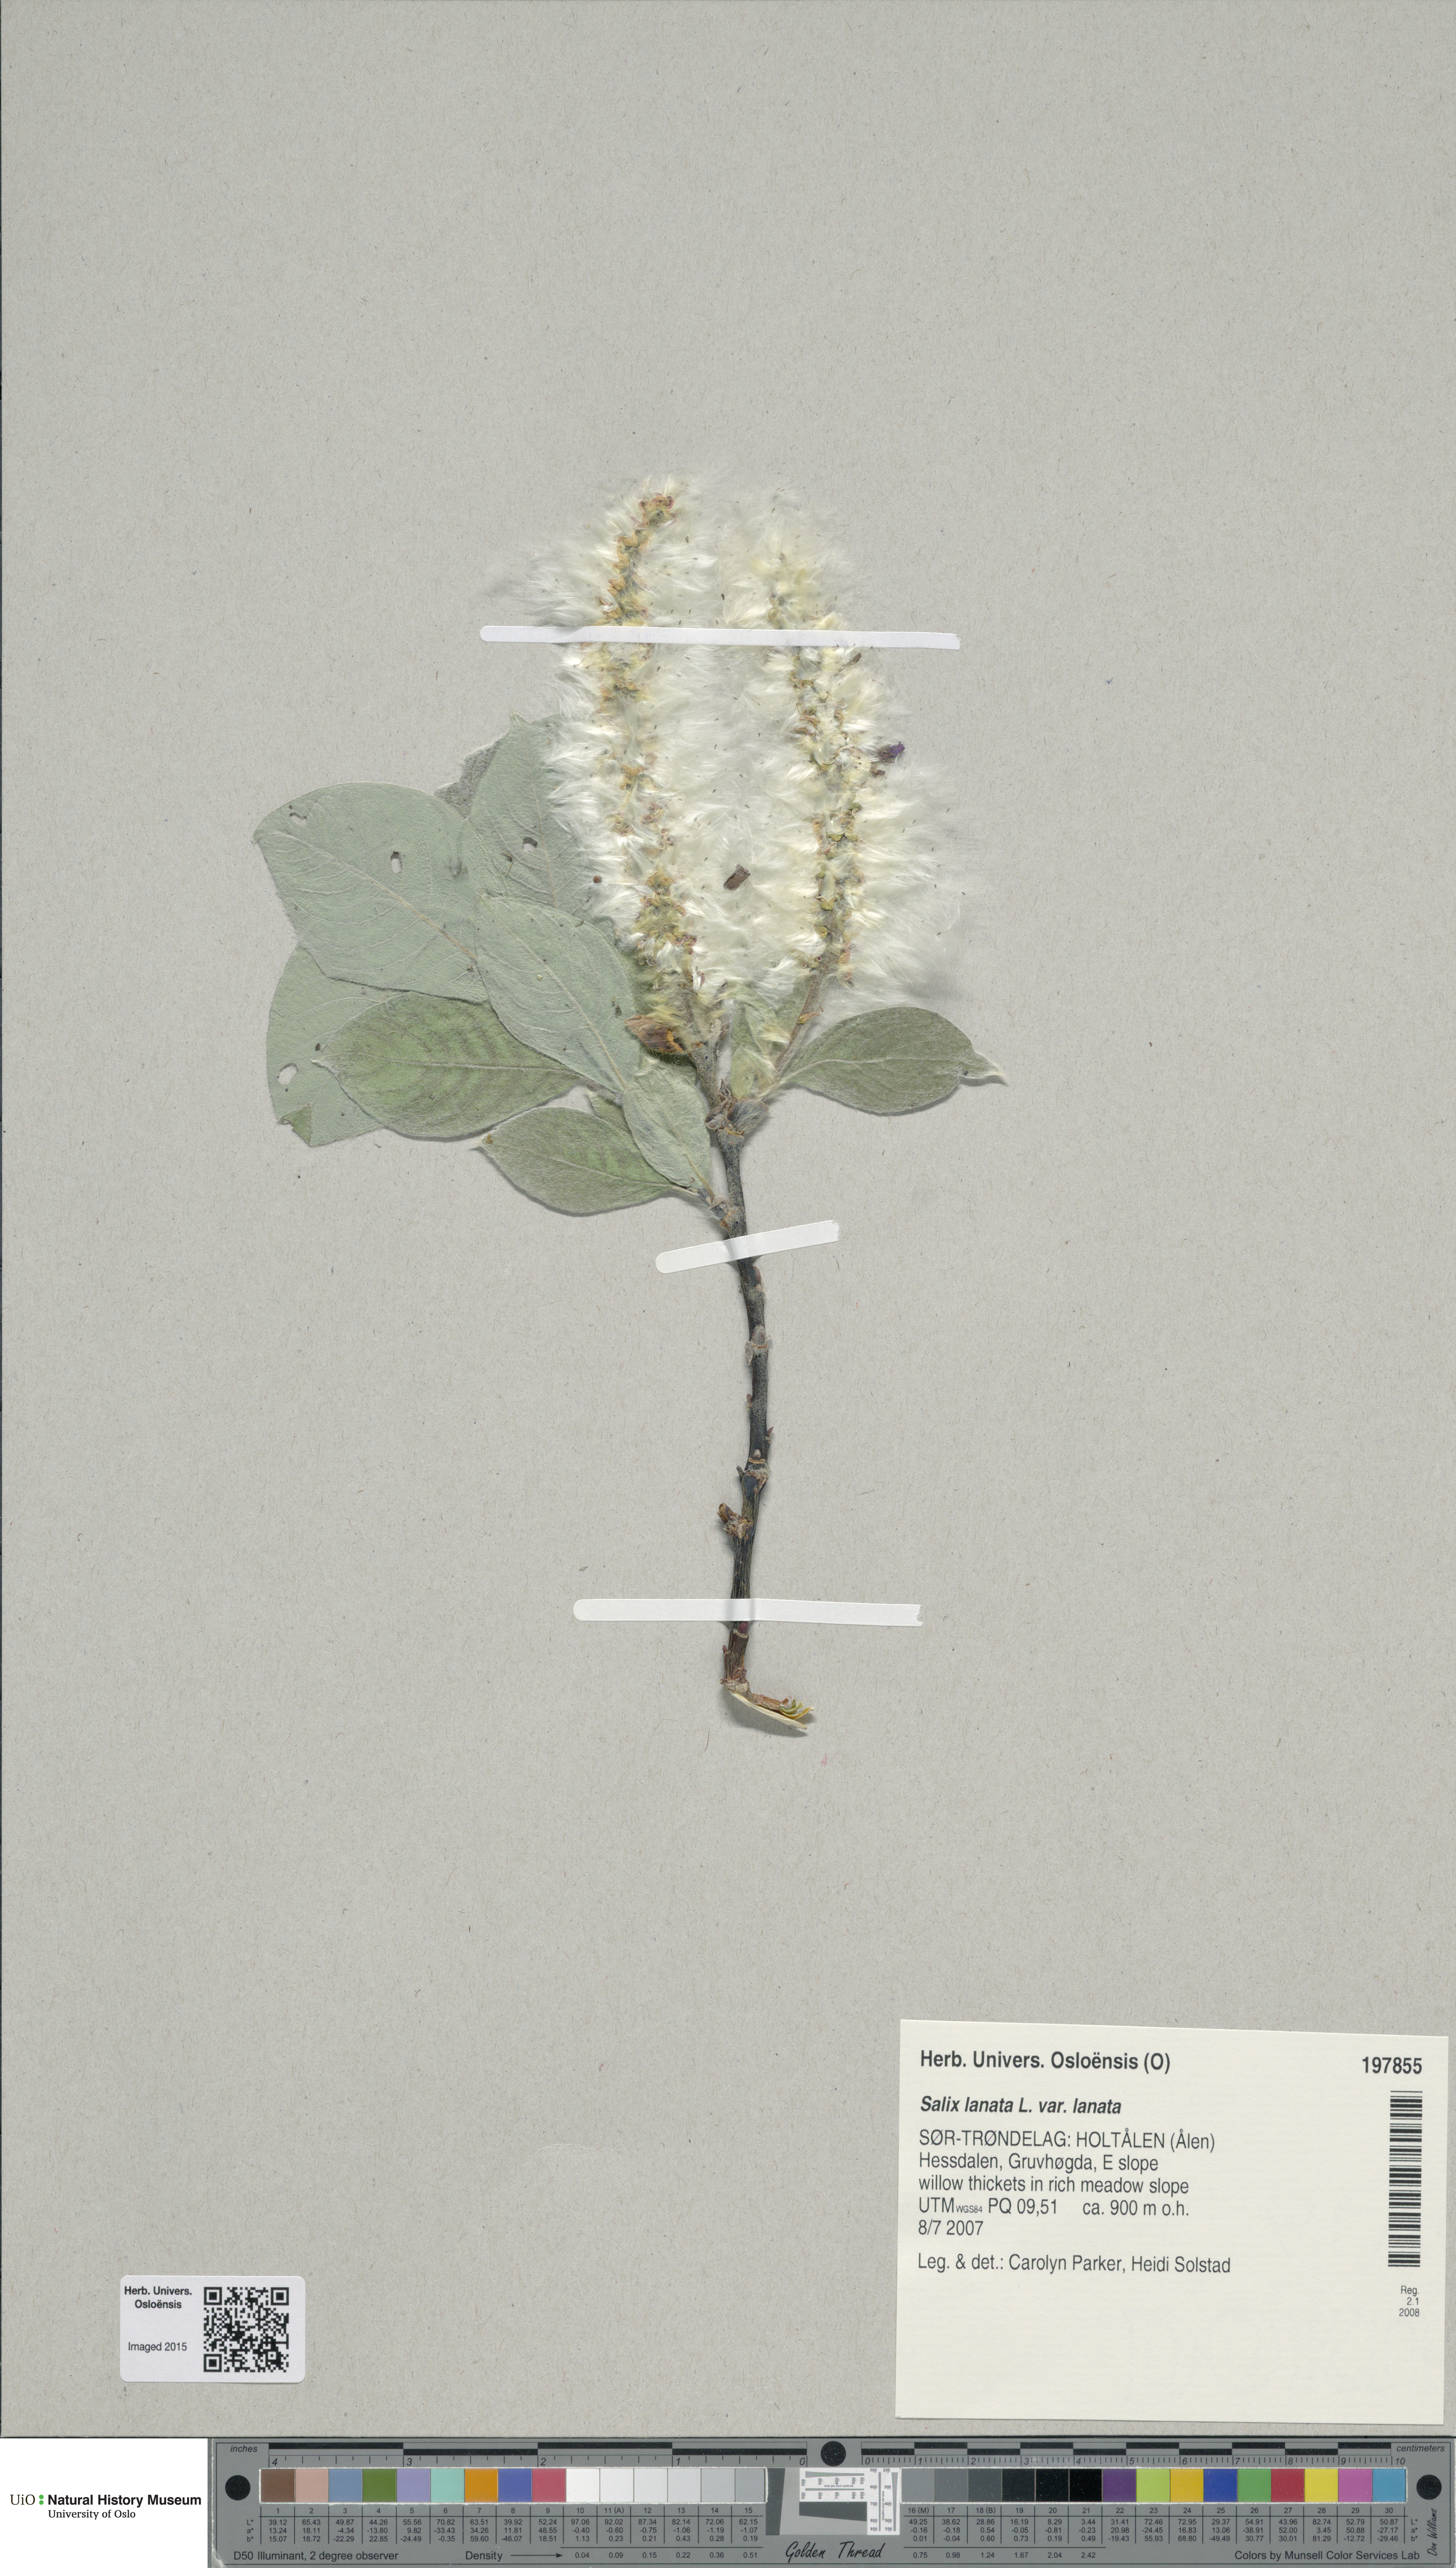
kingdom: Plantae
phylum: Tracheophyta
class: Magnoliopsida
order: Malpighiales
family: Salicaceae
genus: Salix
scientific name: Salix lanata
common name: Woolly willow
